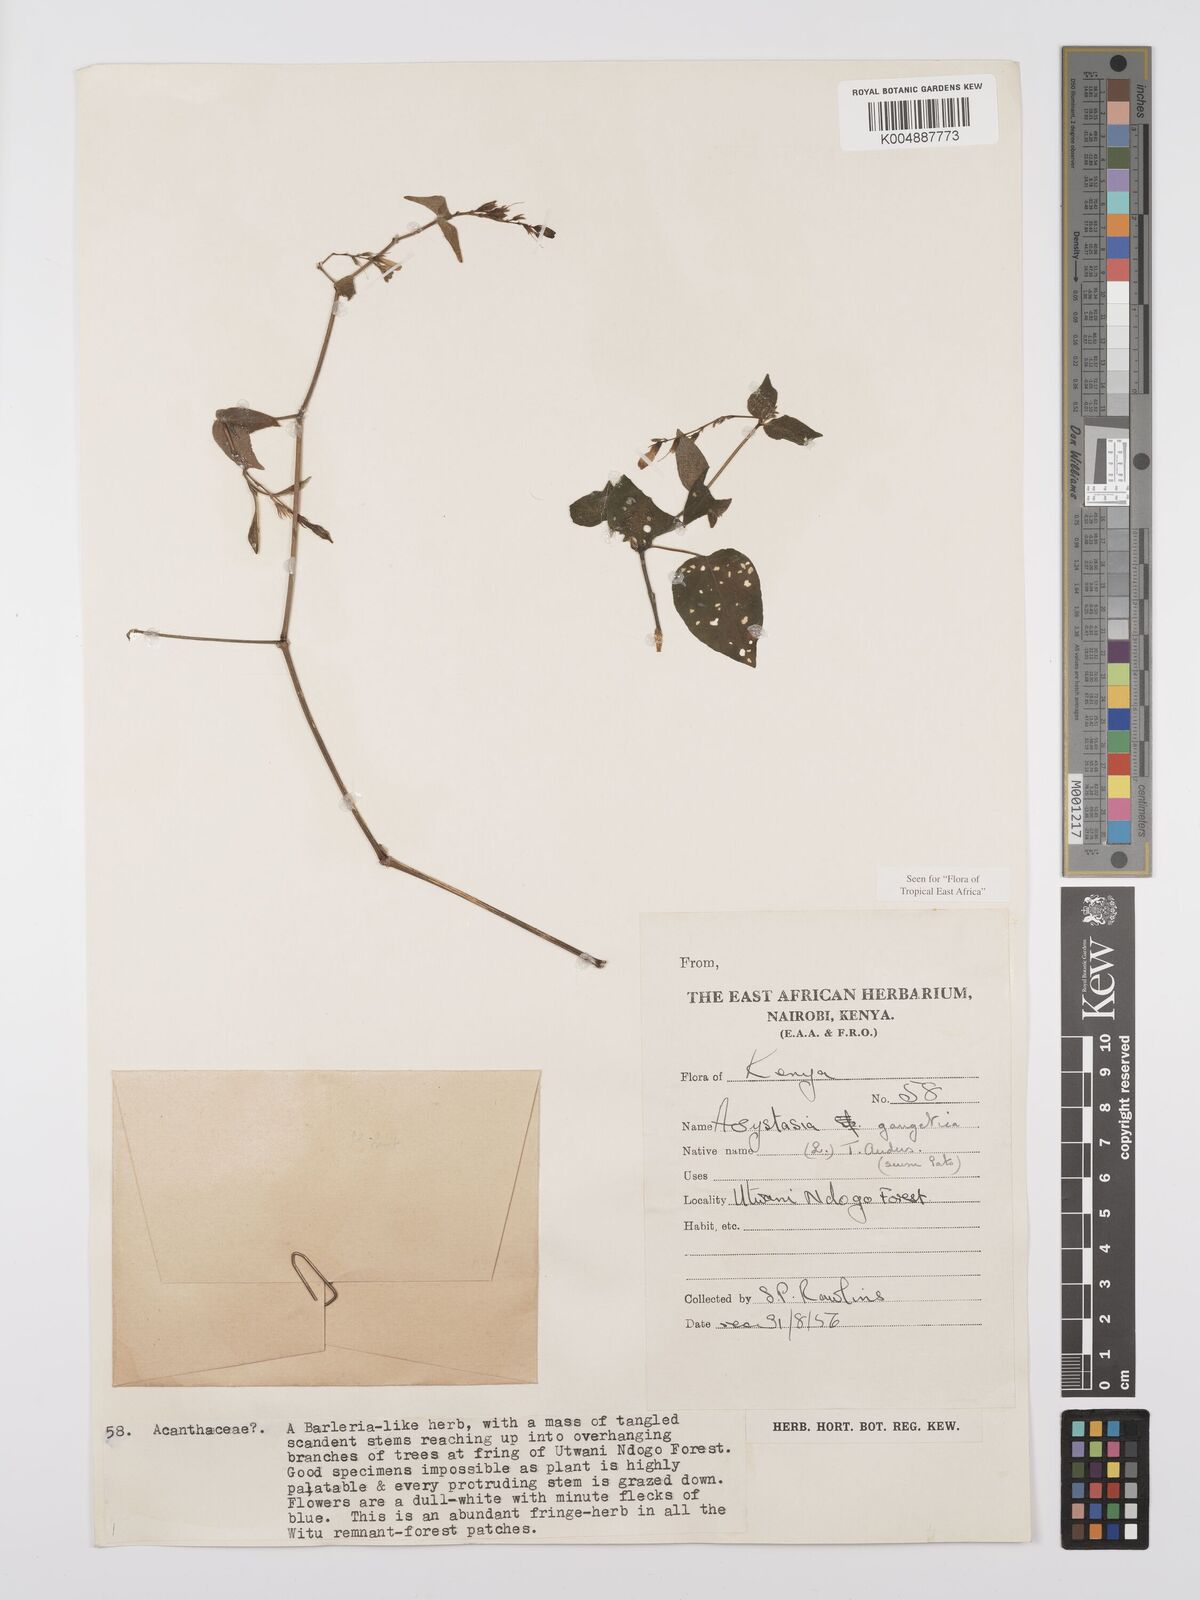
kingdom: Plantae
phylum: Tracheophyta
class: Magnoliopsida
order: Lamiales
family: Acanthaceae
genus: Asystasia
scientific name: Asystasia gangetica
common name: Chinese violet
